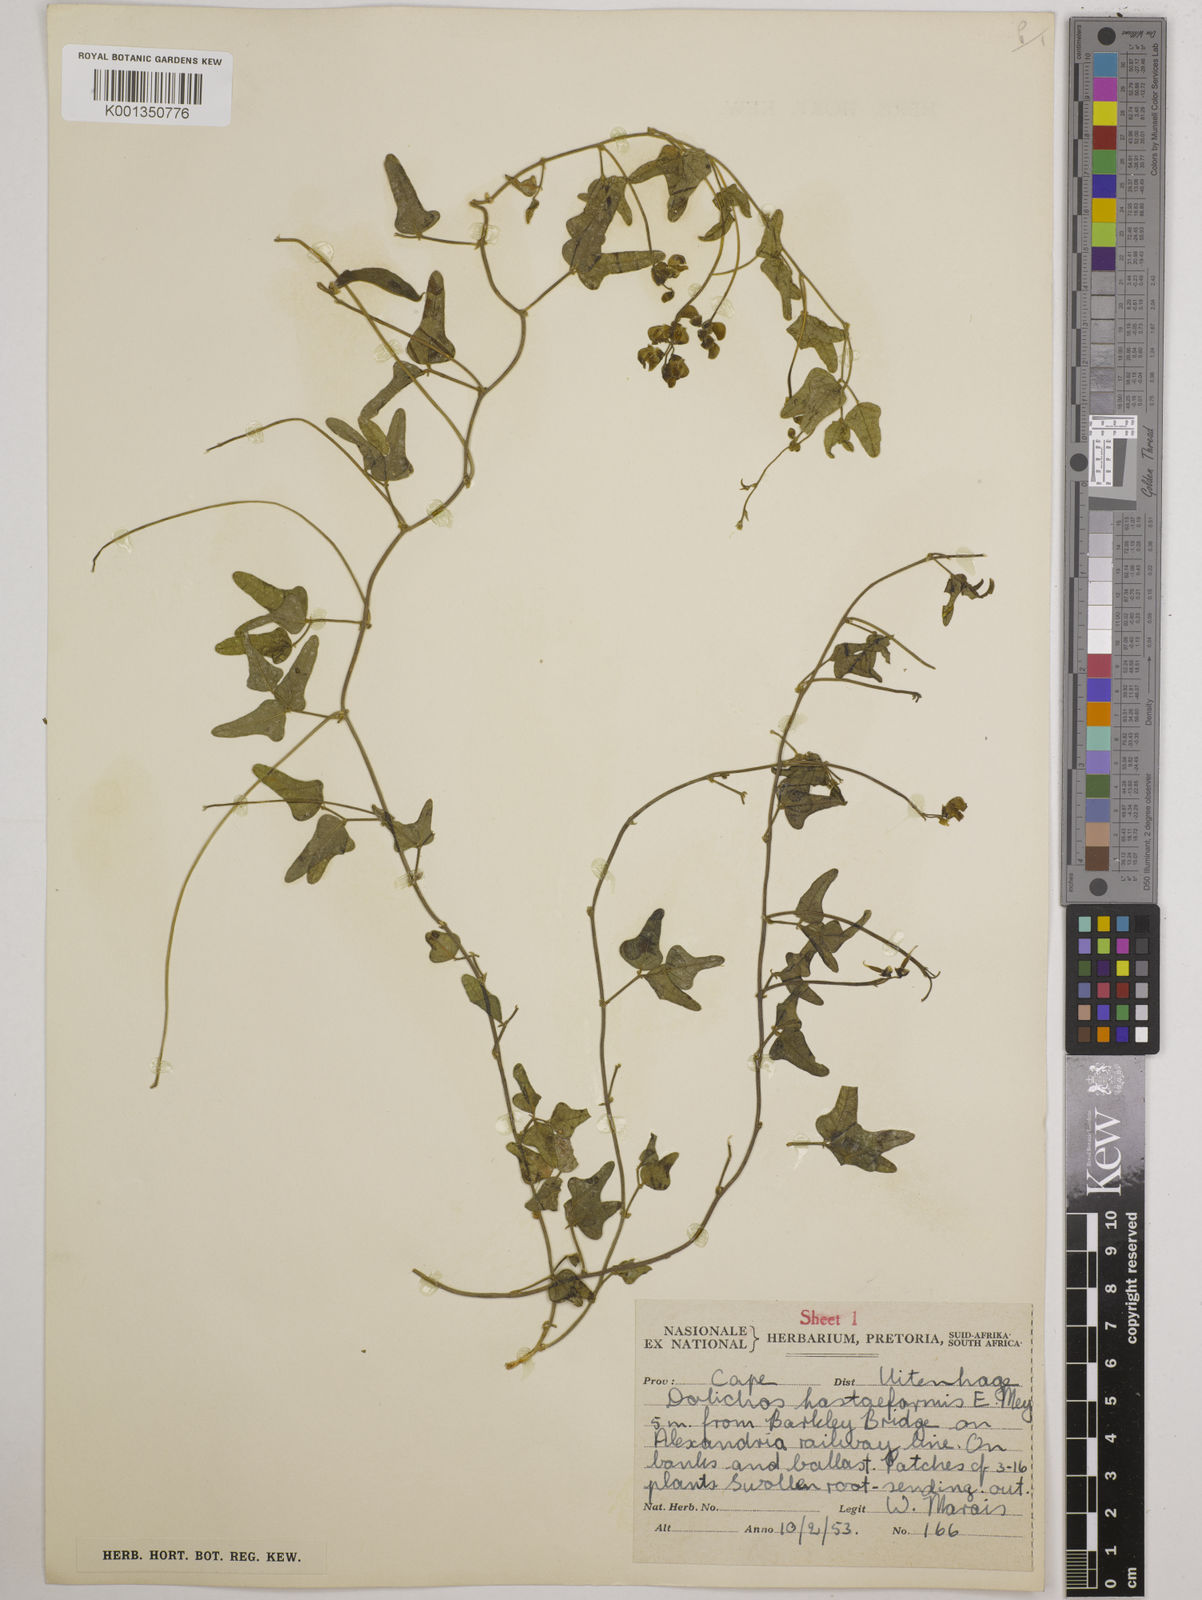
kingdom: Plantae
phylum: Tracheophyta
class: Magnoliopsida
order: Fabales
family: Fabaceae
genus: Dolichos
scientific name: Dolichos
